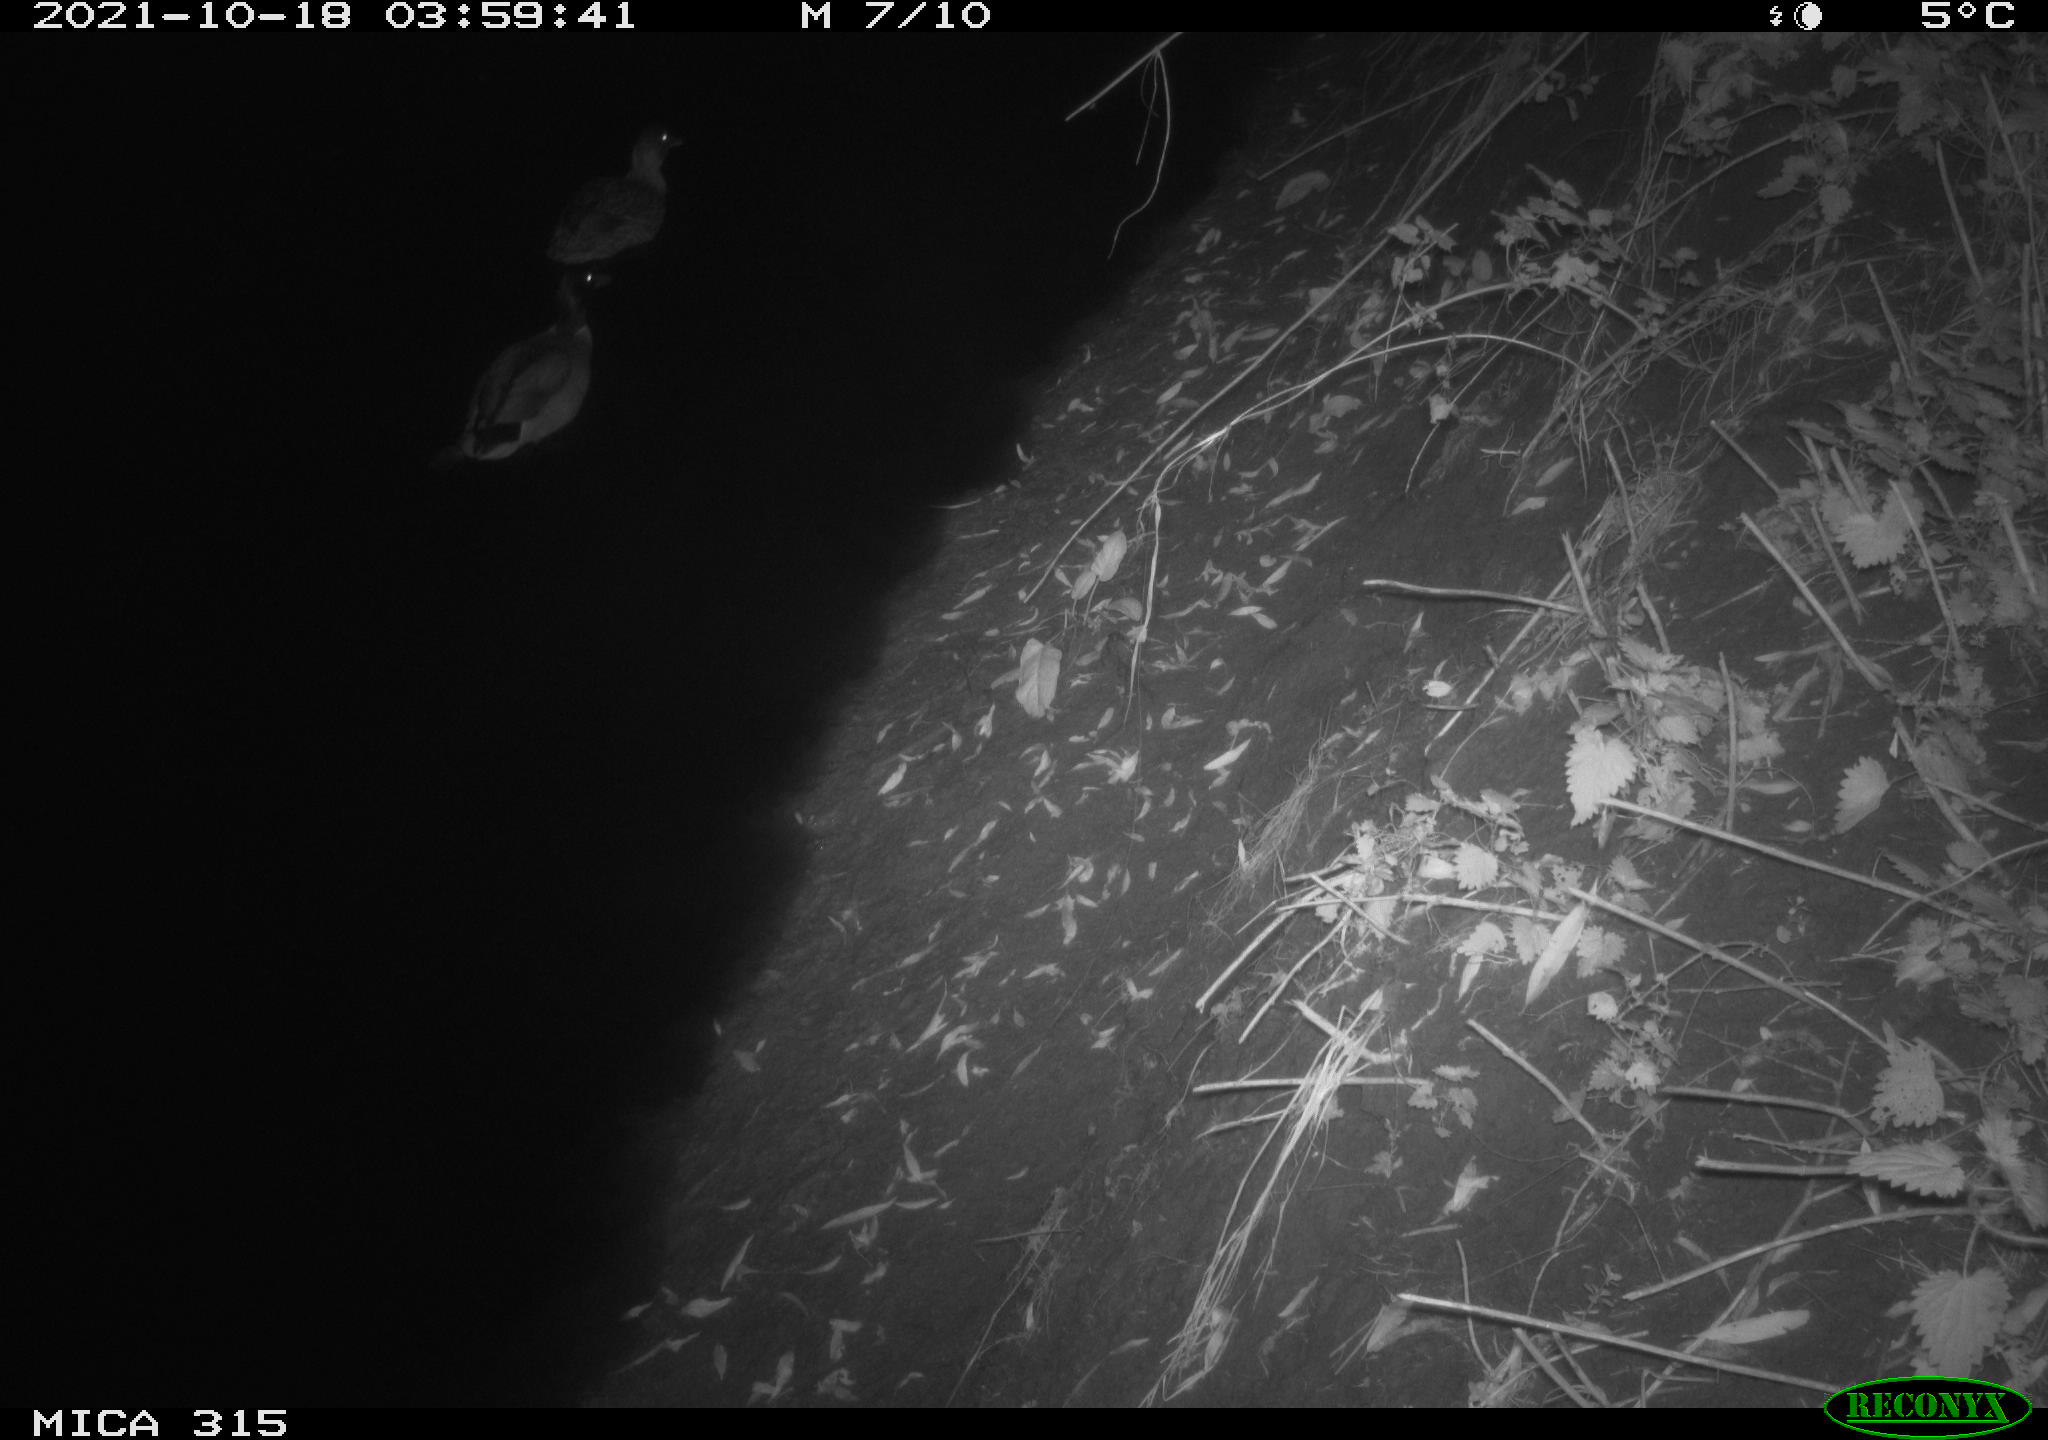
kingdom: Animalia
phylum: Chordata
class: Aves
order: Anseriformes
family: Anatidae
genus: Anas
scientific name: Anas platyrhynchos
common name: Mallard
